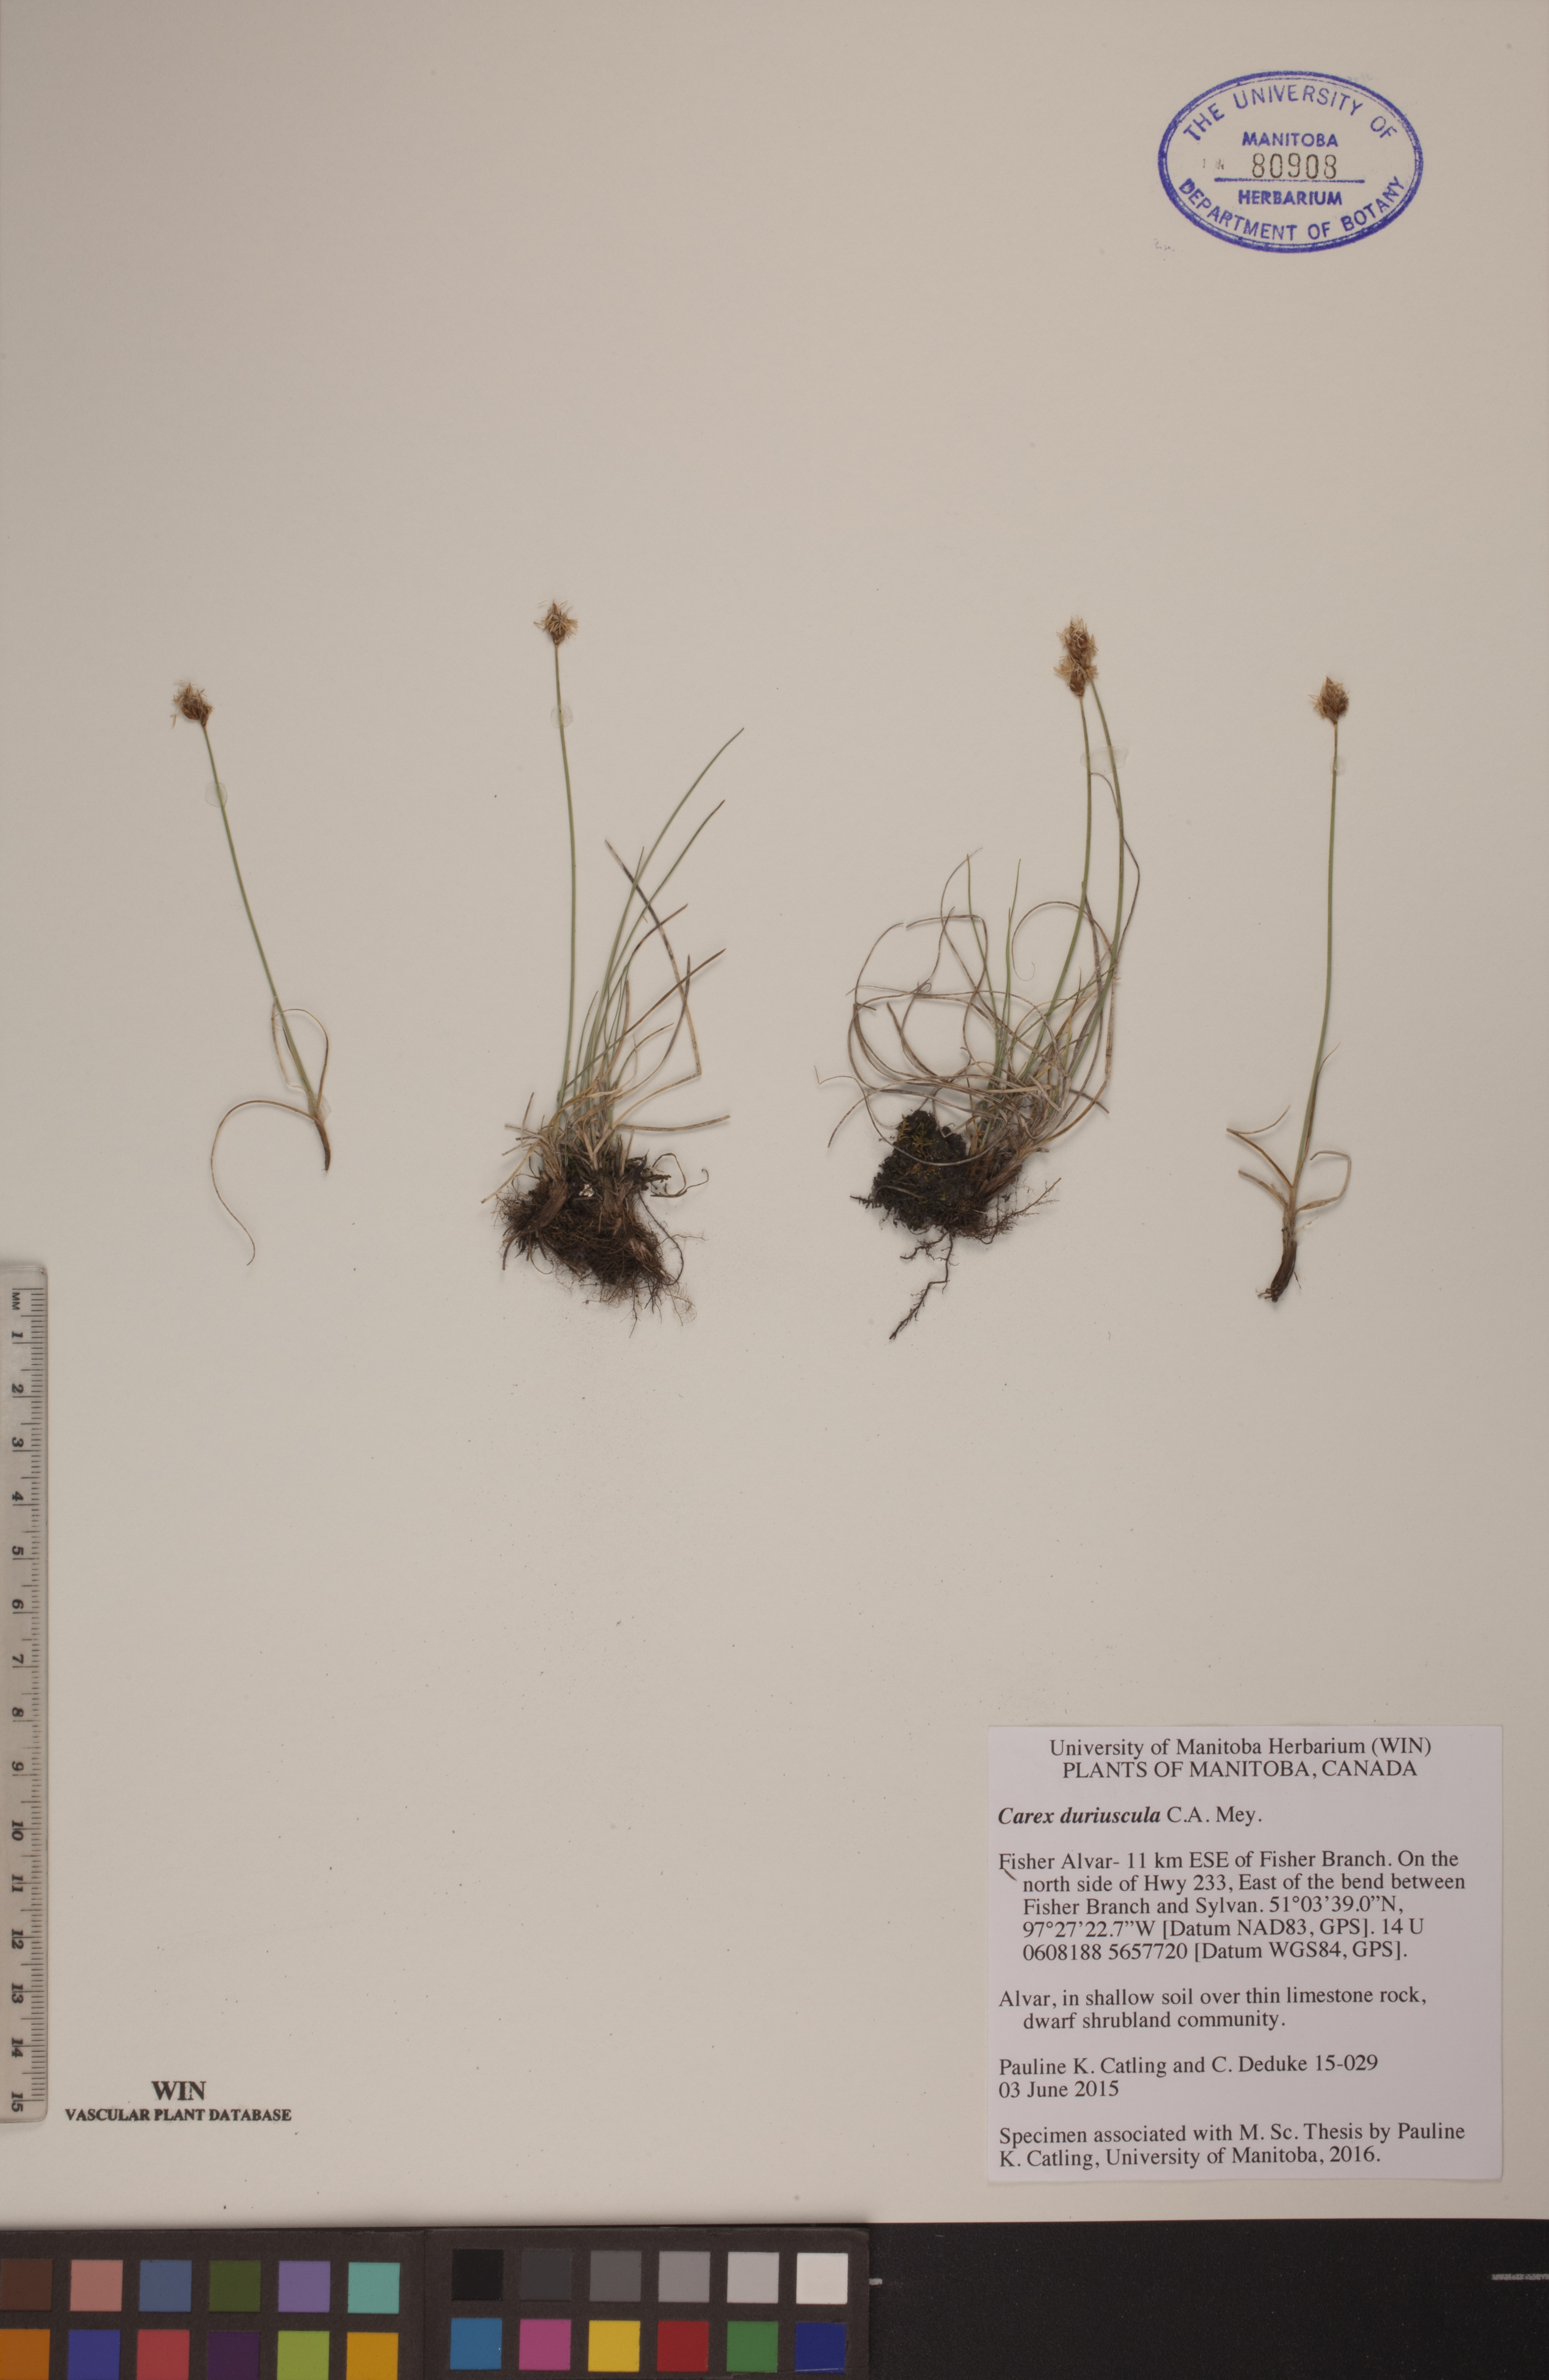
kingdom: Plantae
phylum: Tracheophyta
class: Liliopsida
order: Poales
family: Cyperaceae
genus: Carex
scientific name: Carex duriuscula
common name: Involute-leaved sedge
